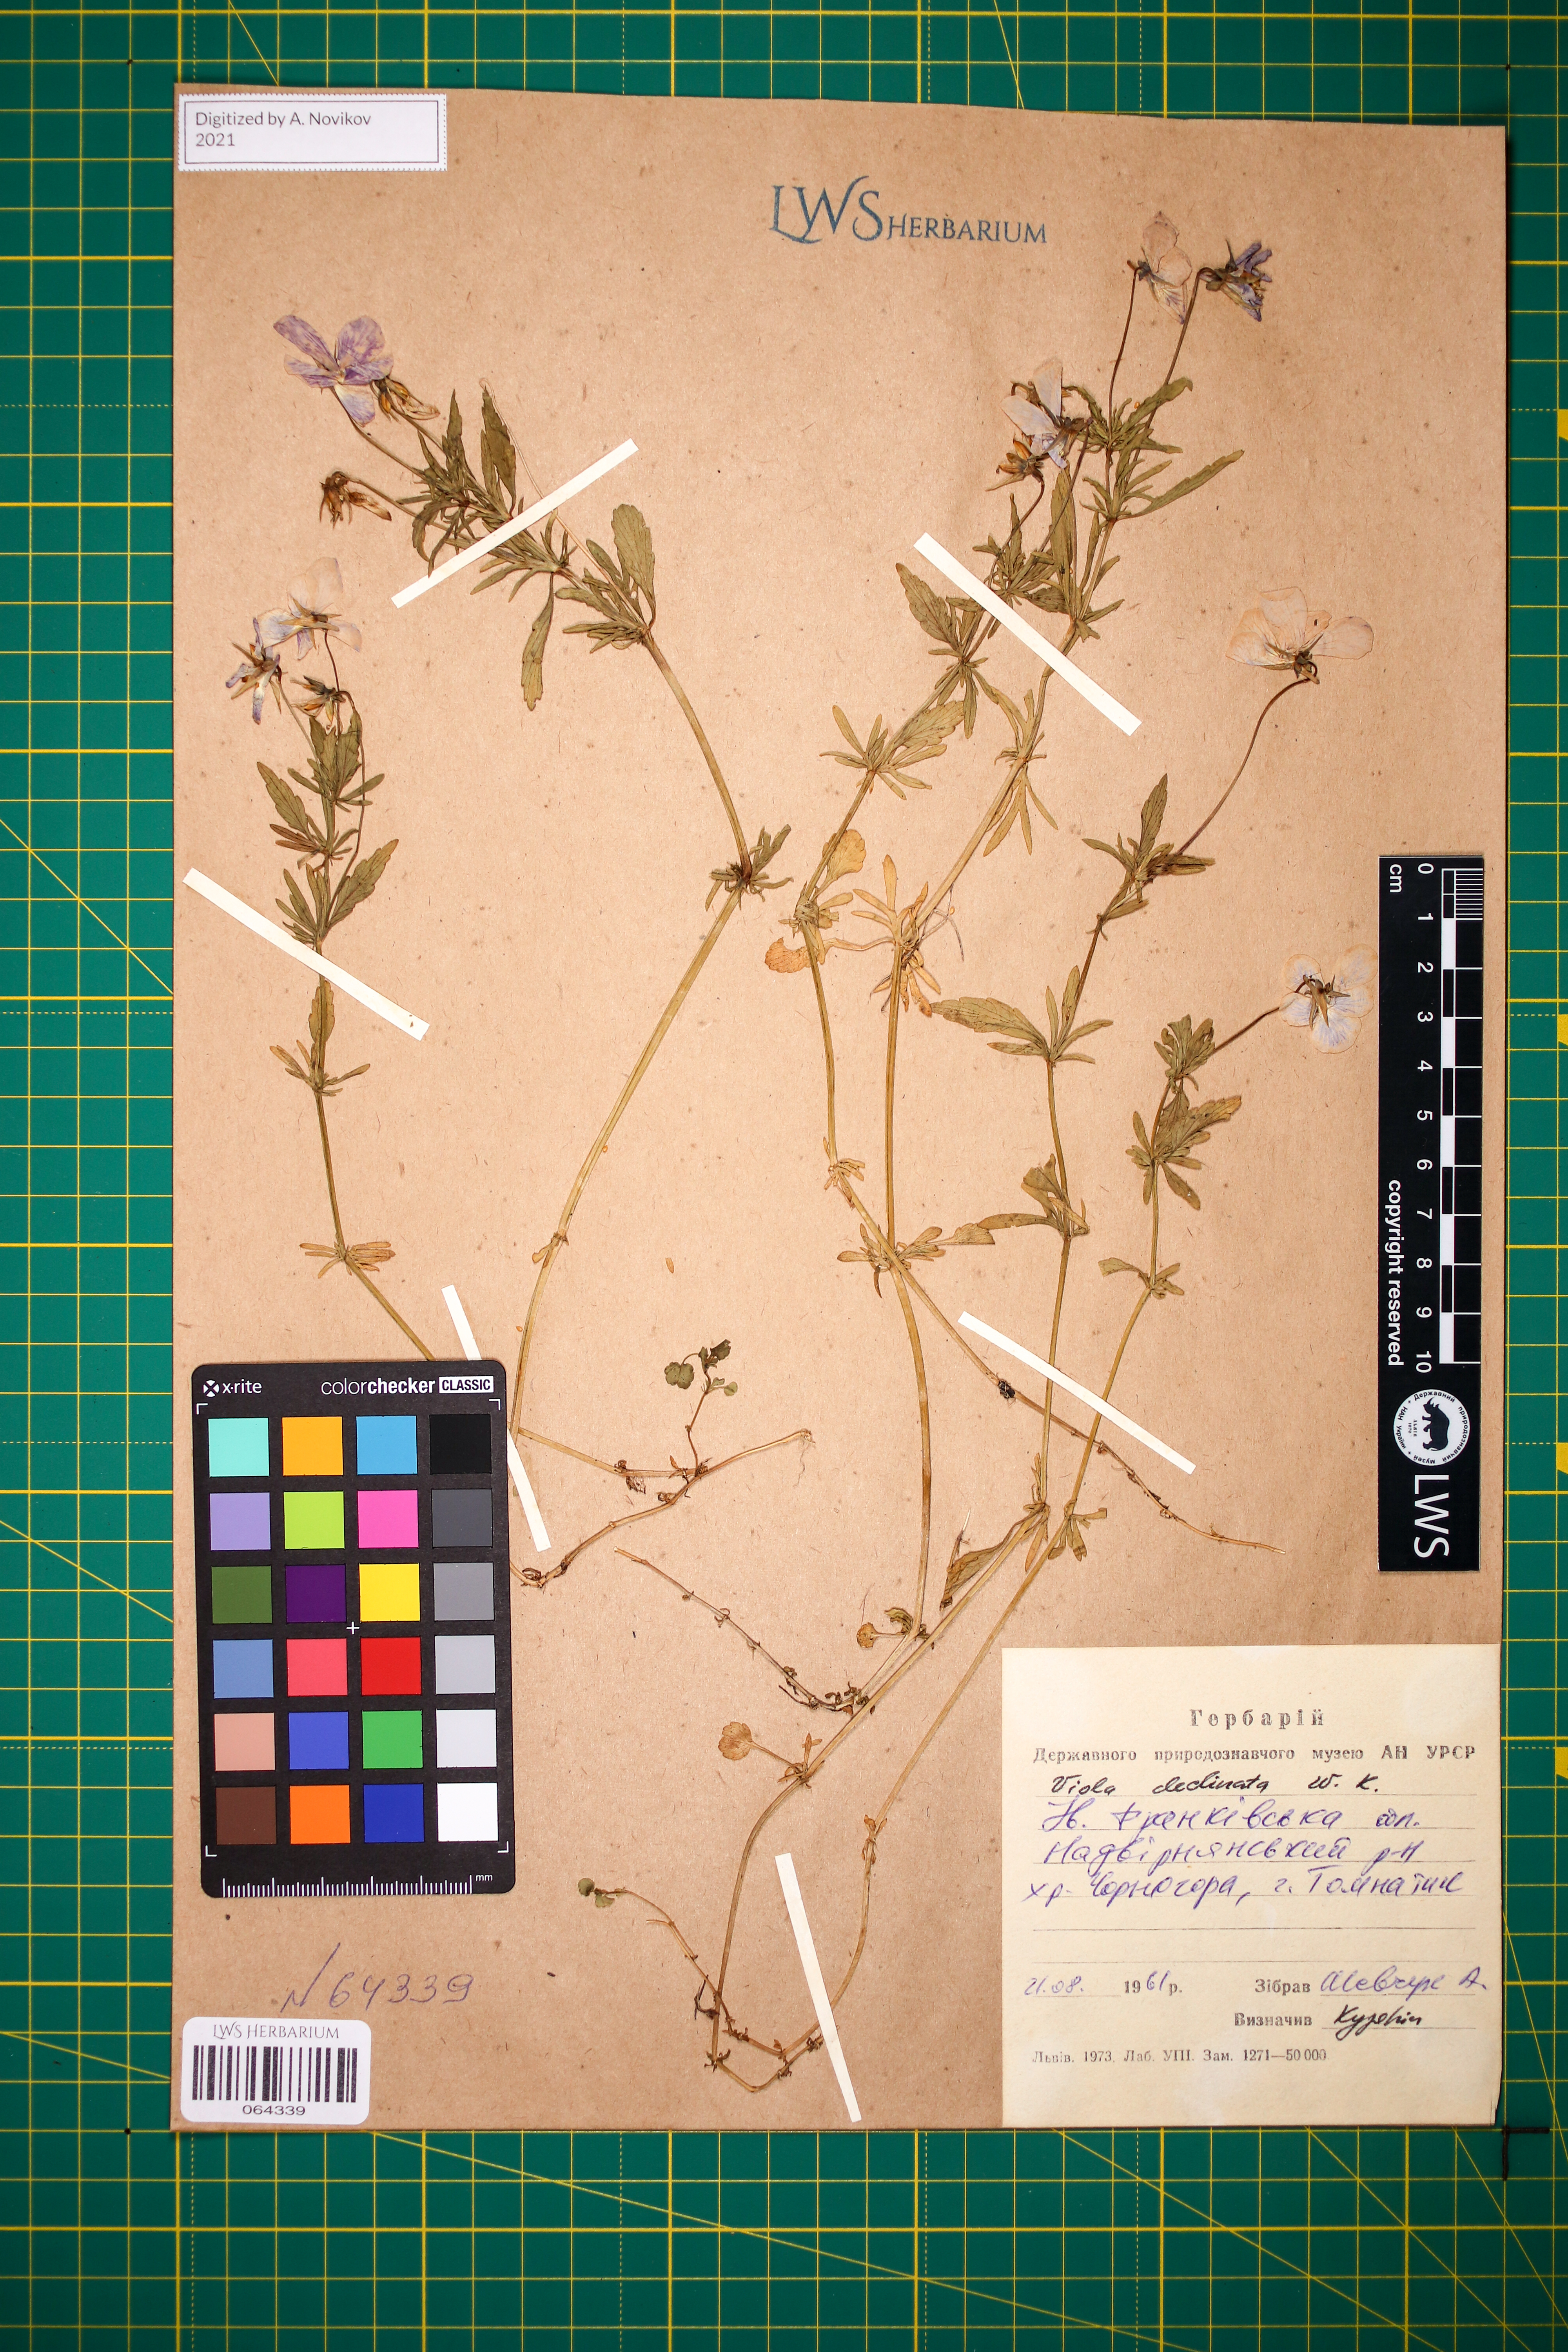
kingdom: Plantae
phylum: Tracheophyta
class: Magnoliopsida
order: Malpighiales
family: Violaceae
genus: Viola
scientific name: Viola declinata
